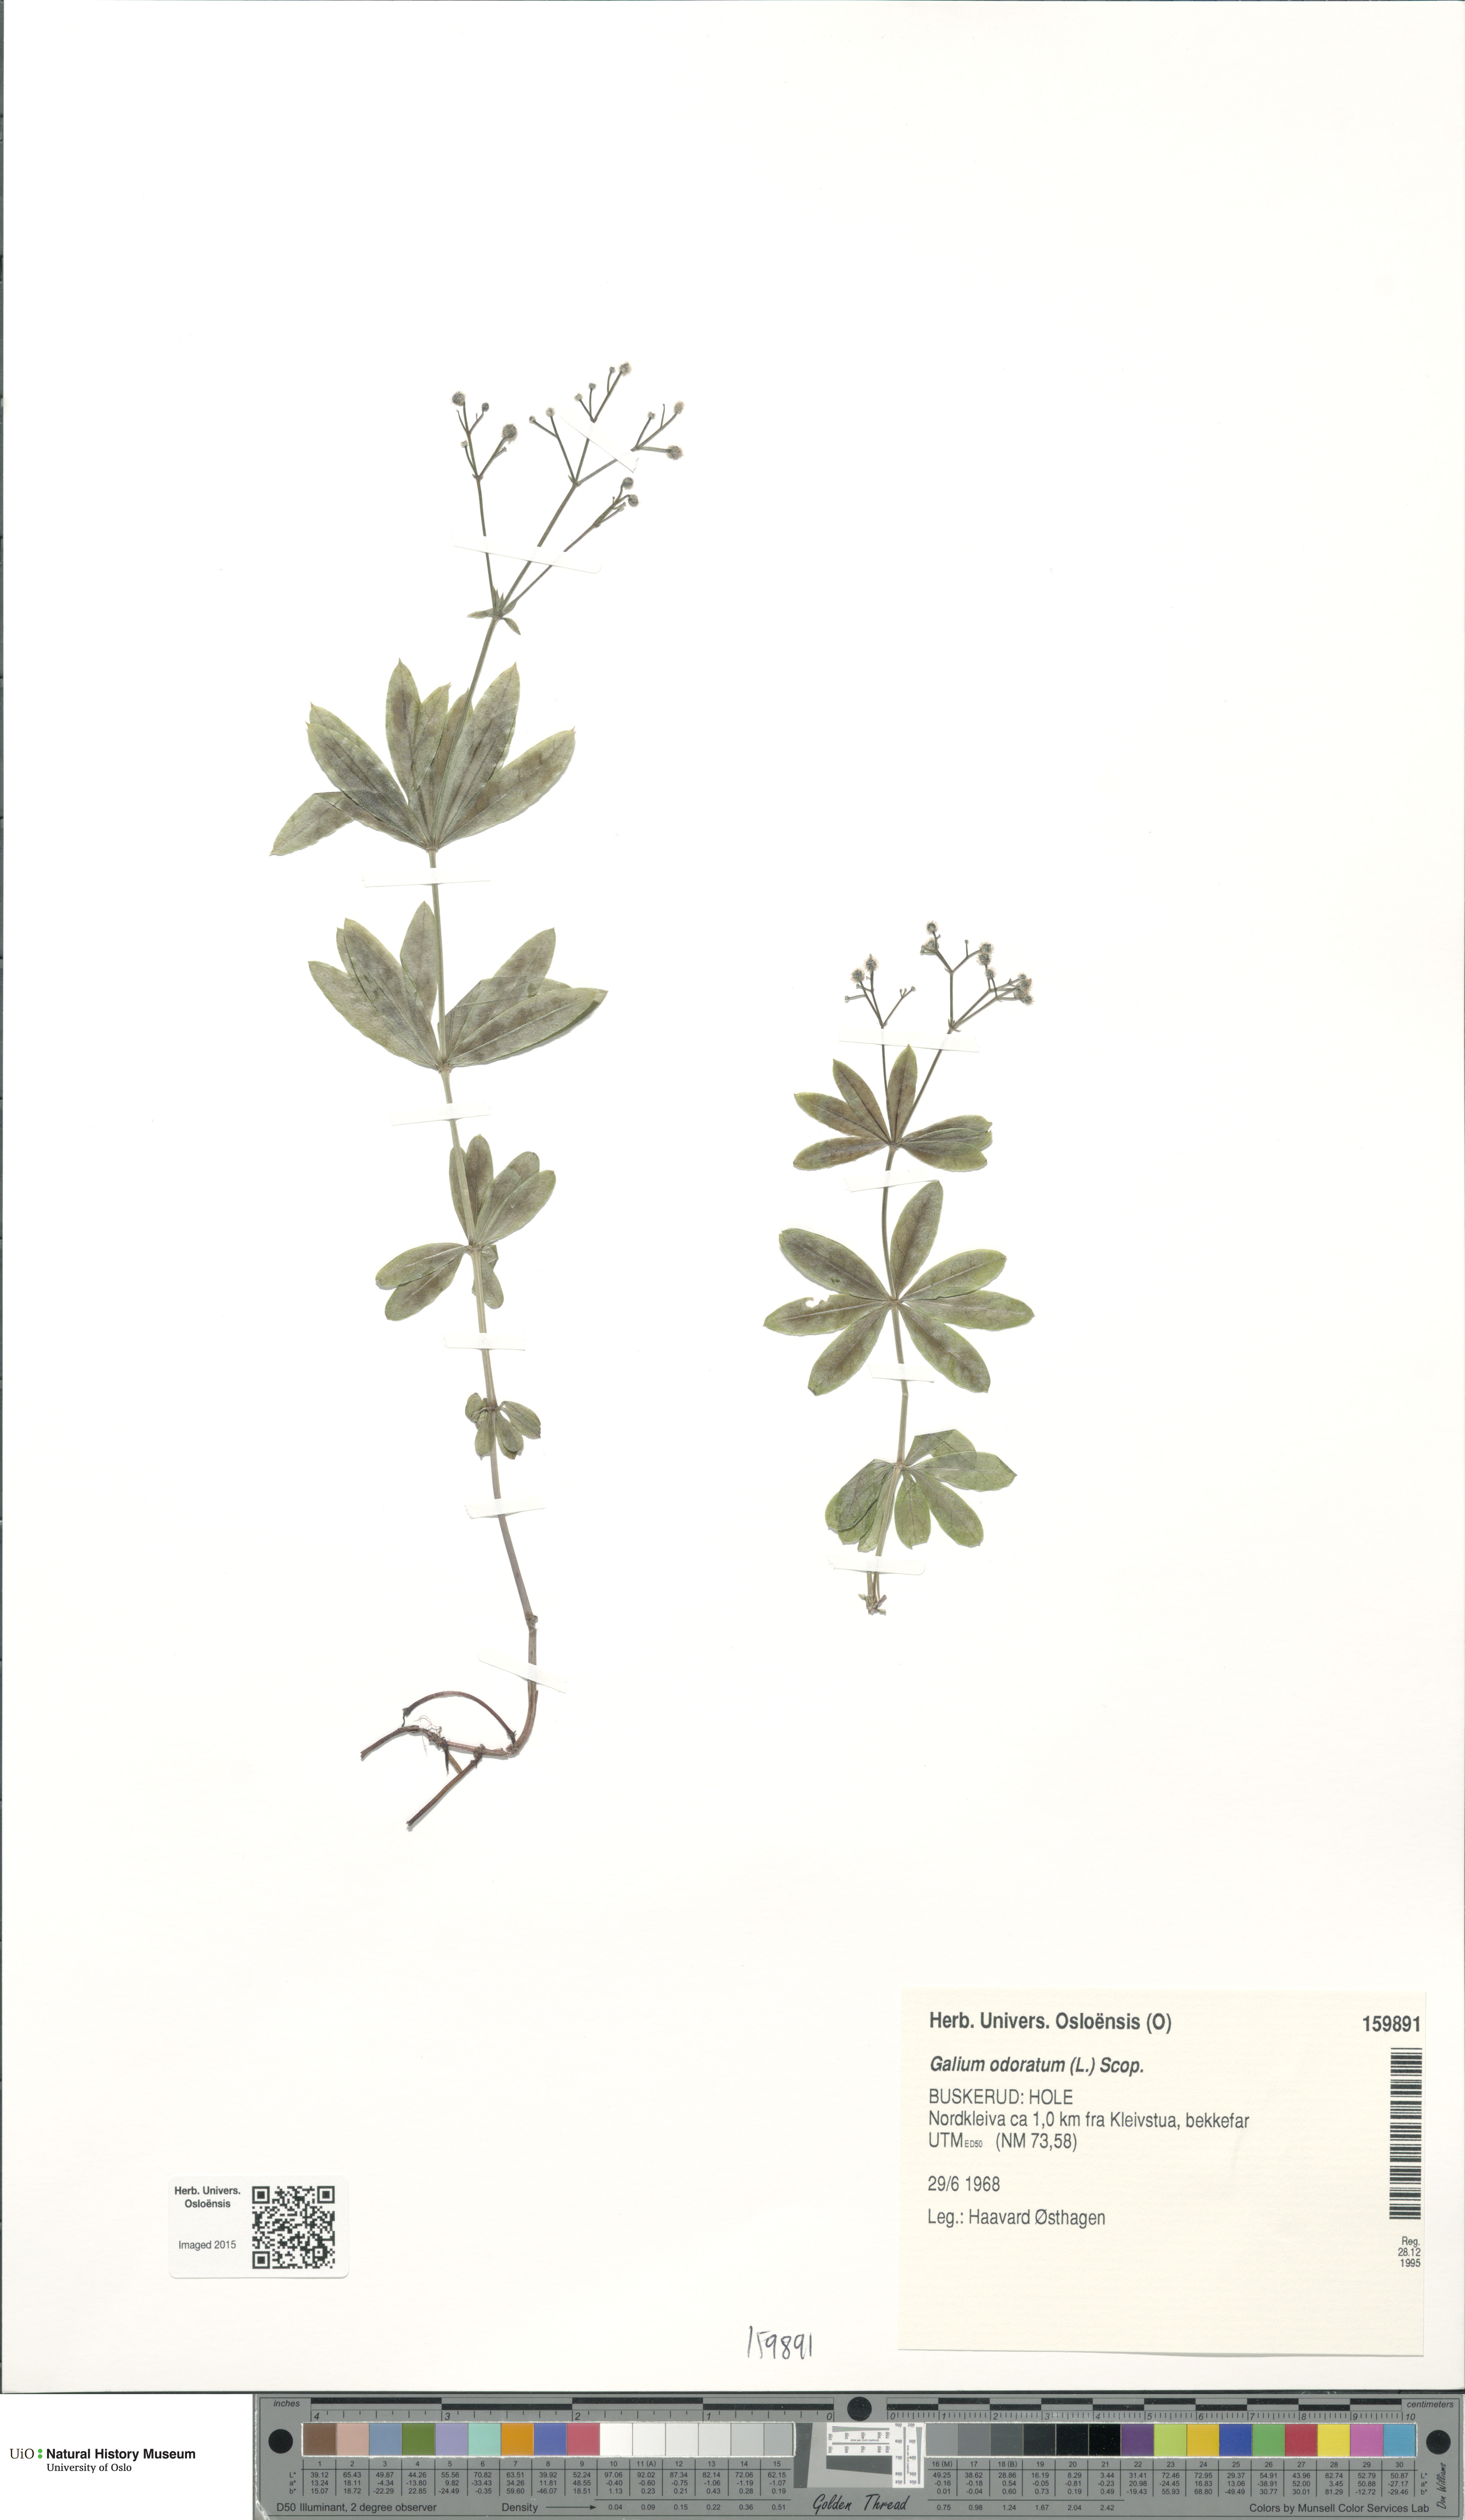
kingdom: Plantae
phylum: Tracheophyta
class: Magnoliopsida
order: Gentianales
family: Rubiaceae
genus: Galium
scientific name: Galium odoratum
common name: Sweet woodruff
